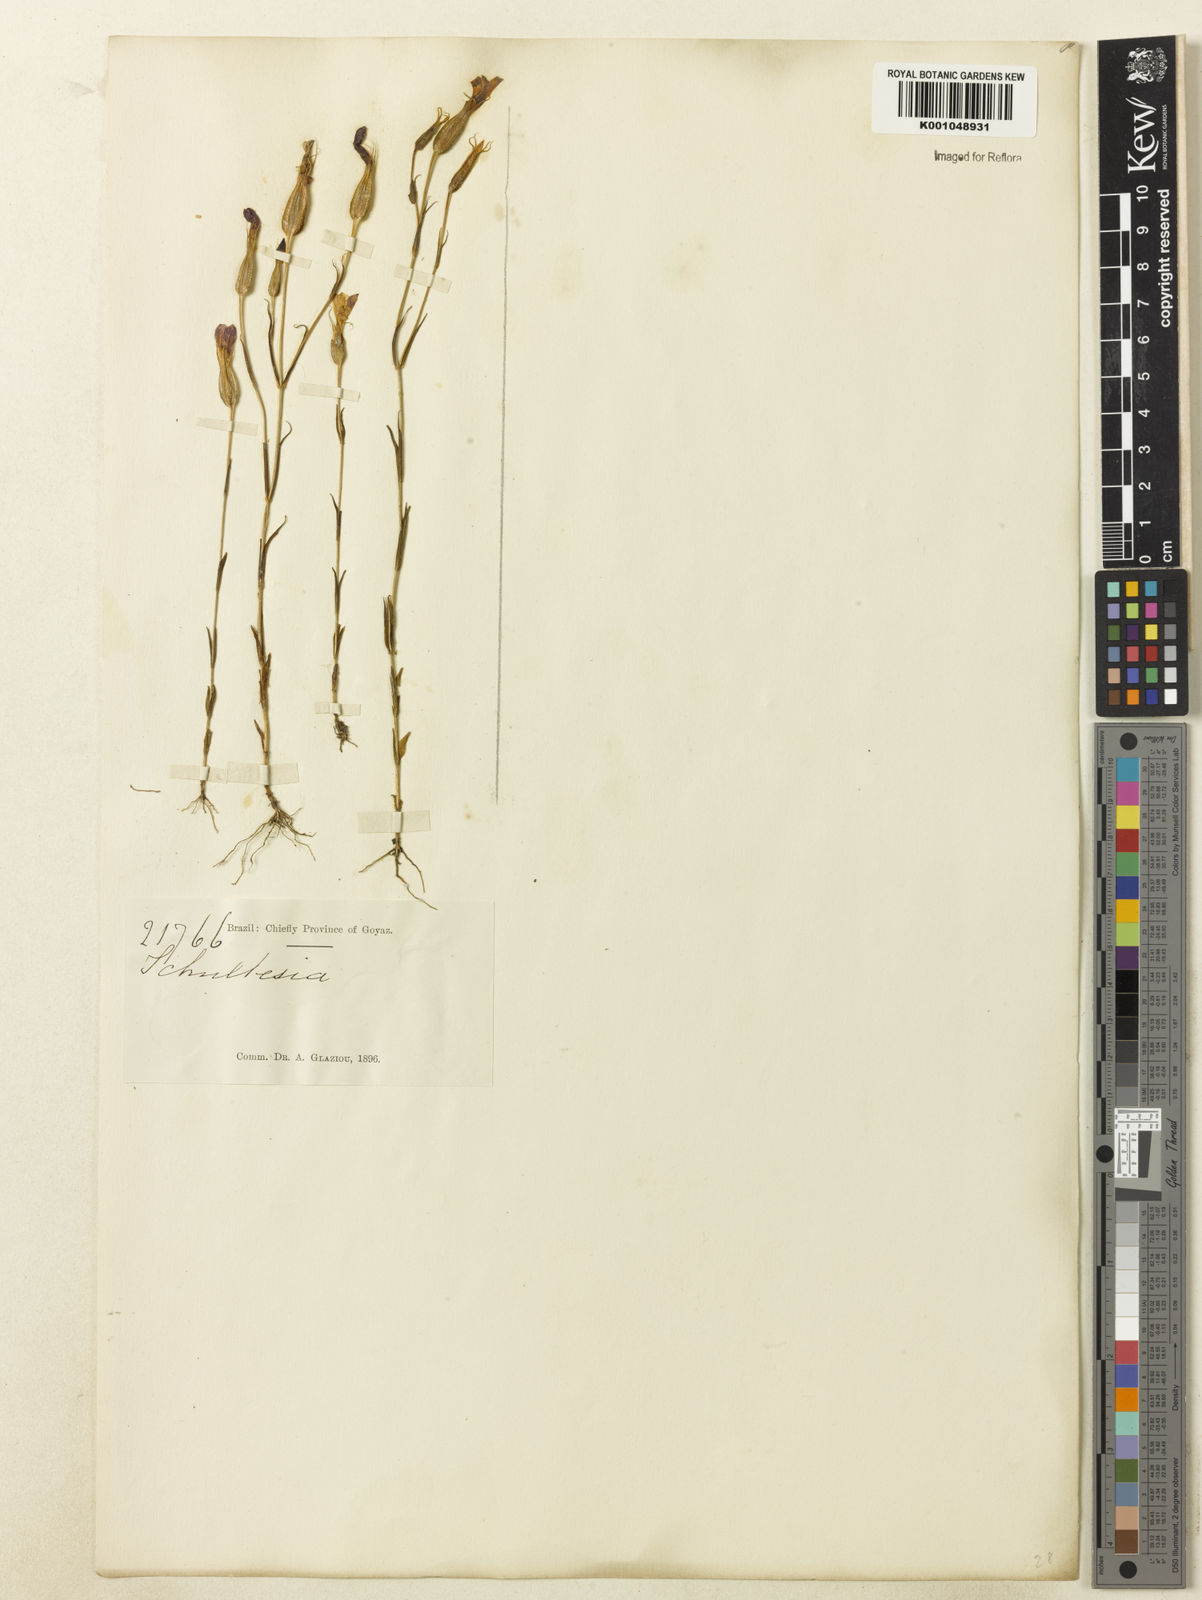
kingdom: Plantae
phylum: Tracheophyta
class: Magnoliopsida
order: Gentianales
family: Gentianaceae
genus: Schultesia
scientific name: Schultesia
